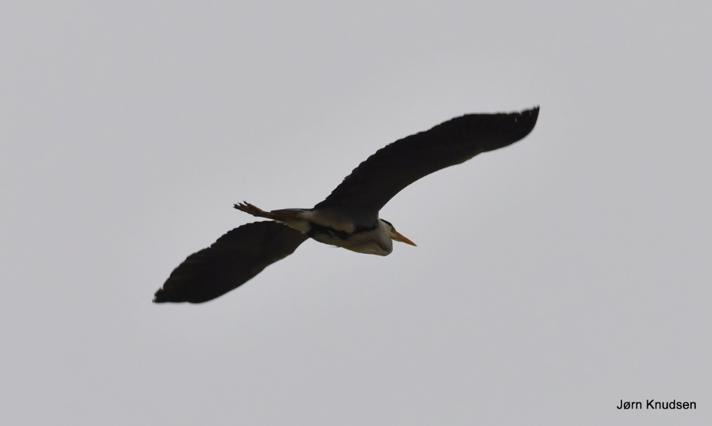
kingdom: Animalia
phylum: Chordata
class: Aves
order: Pelecaniformes
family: Ardeidae
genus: Ardea
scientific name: Ardea cinerea
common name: Fiskehejre
